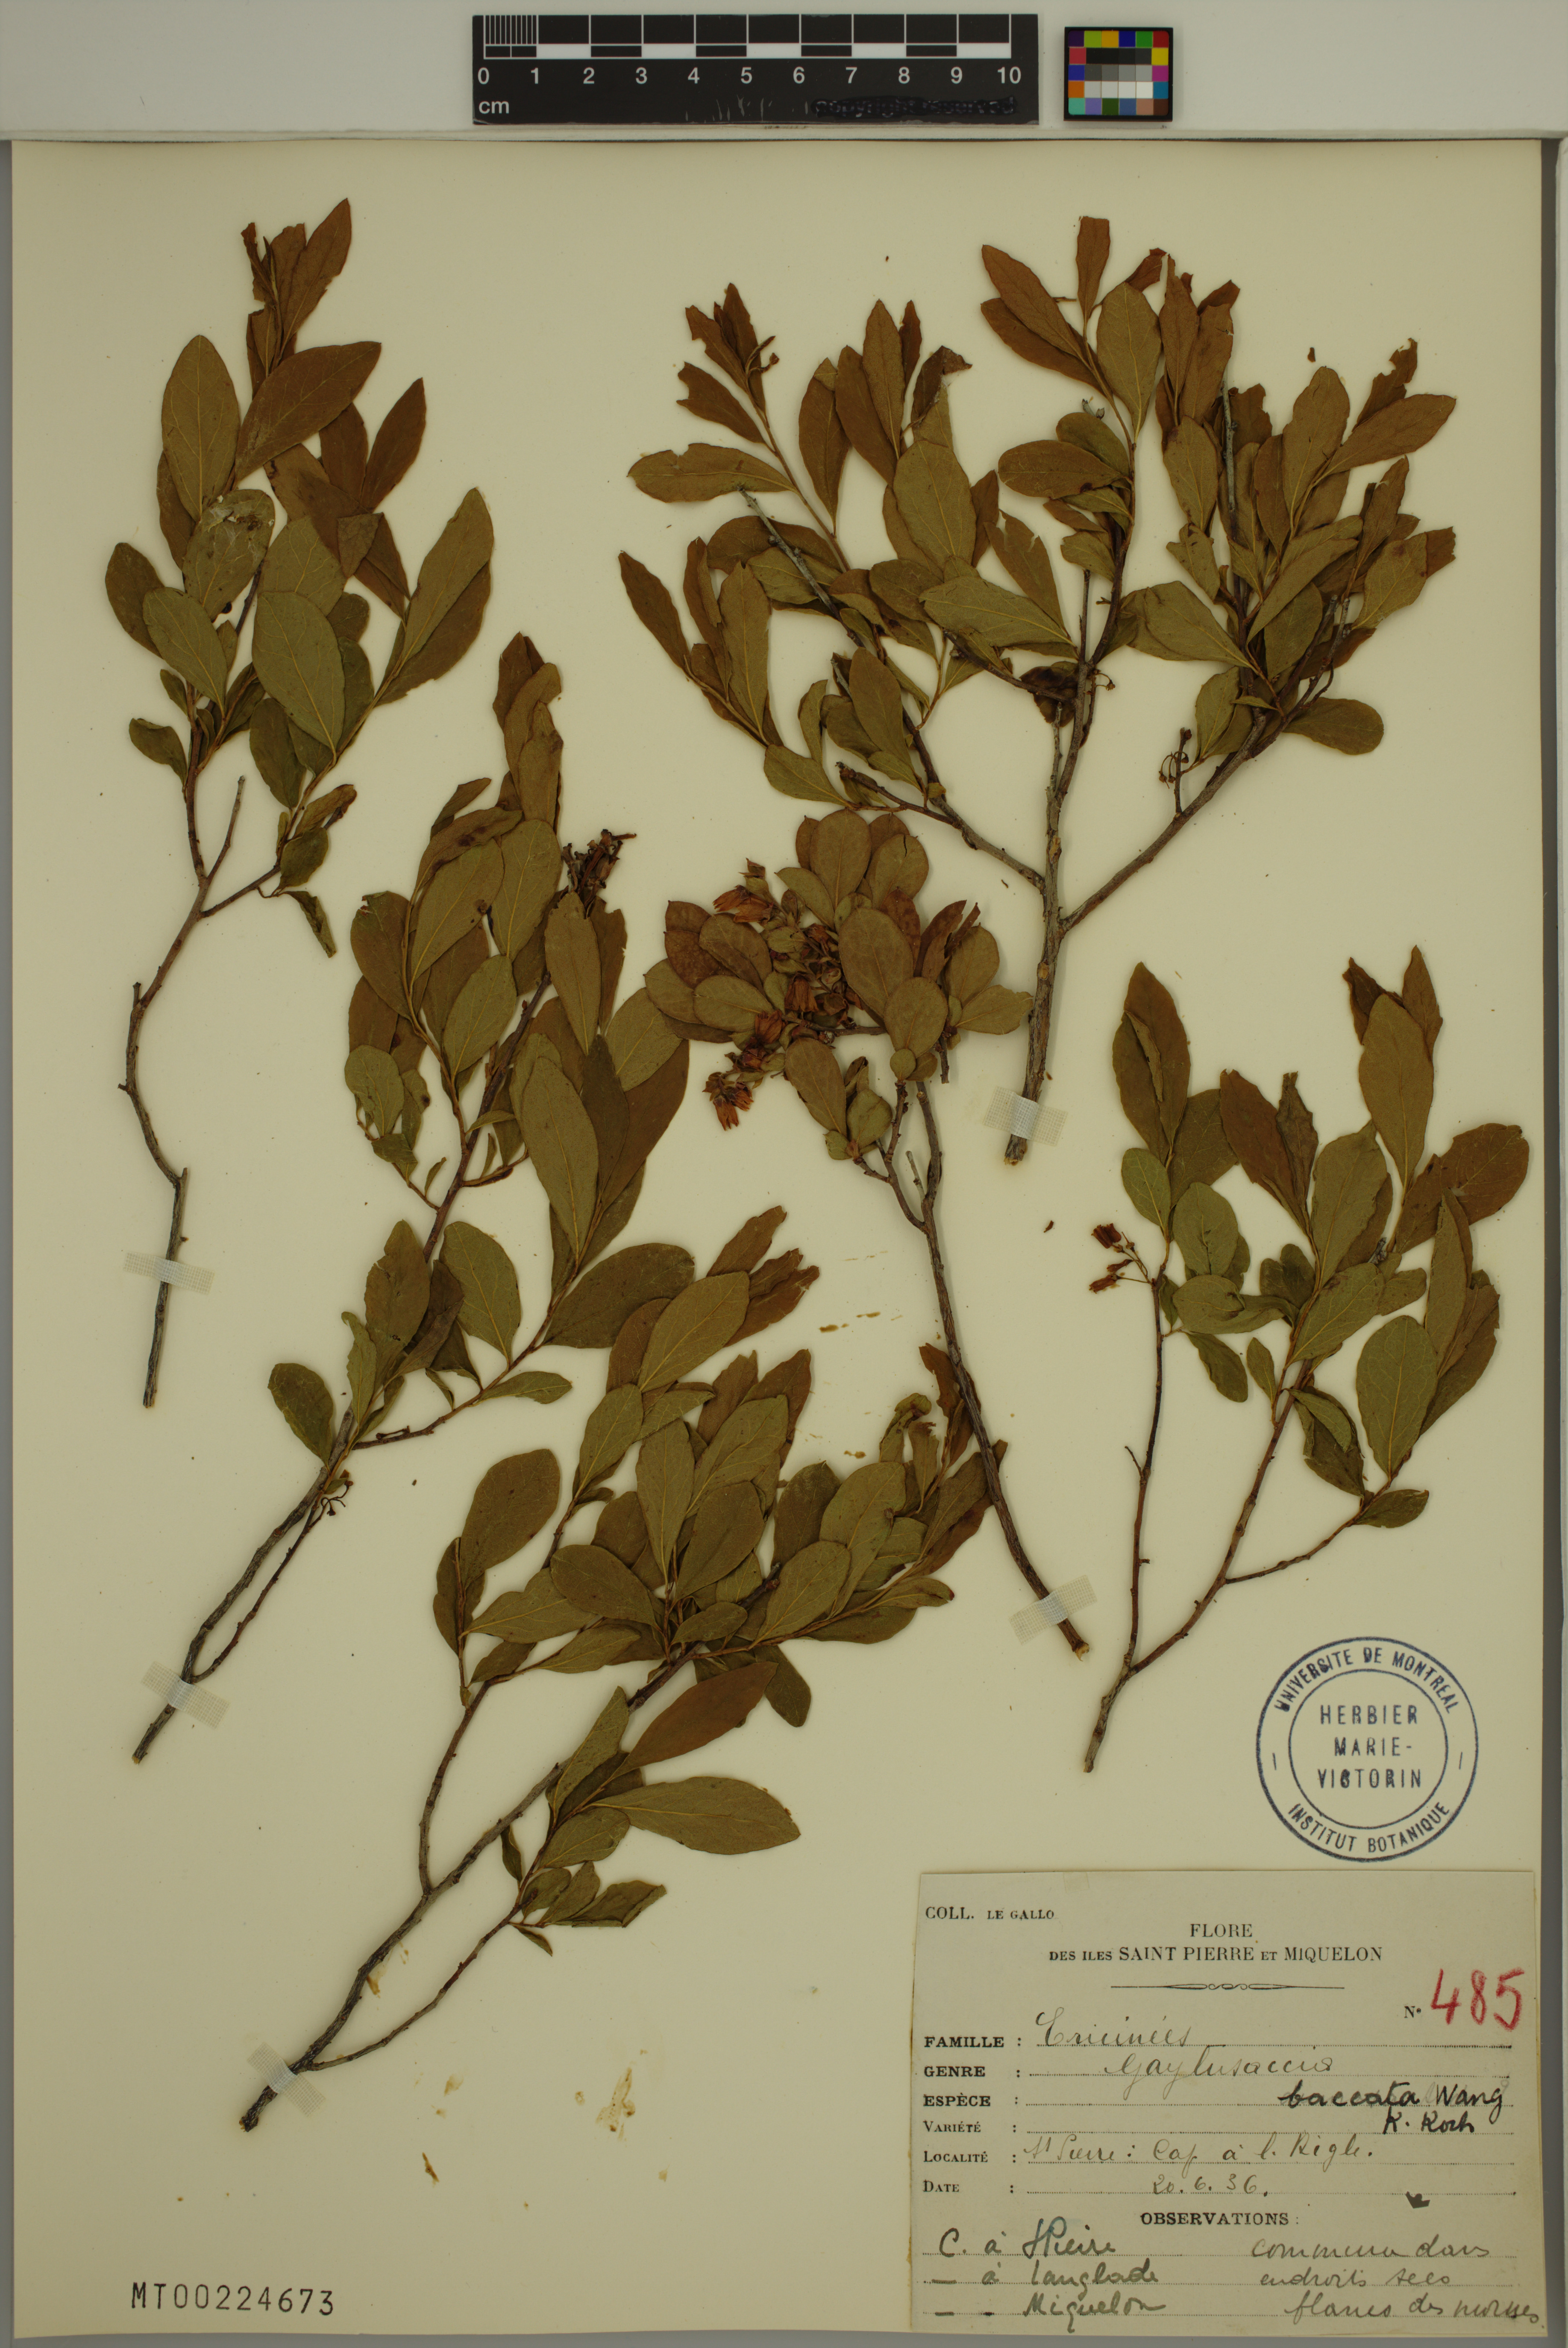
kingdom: Plantae
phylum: Tracheophyta
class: Magnoliopsida
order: Ericales
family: Ericaceae
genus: Gaylussacia
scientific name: Gaylussacia baccata
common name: Black huckleberry
